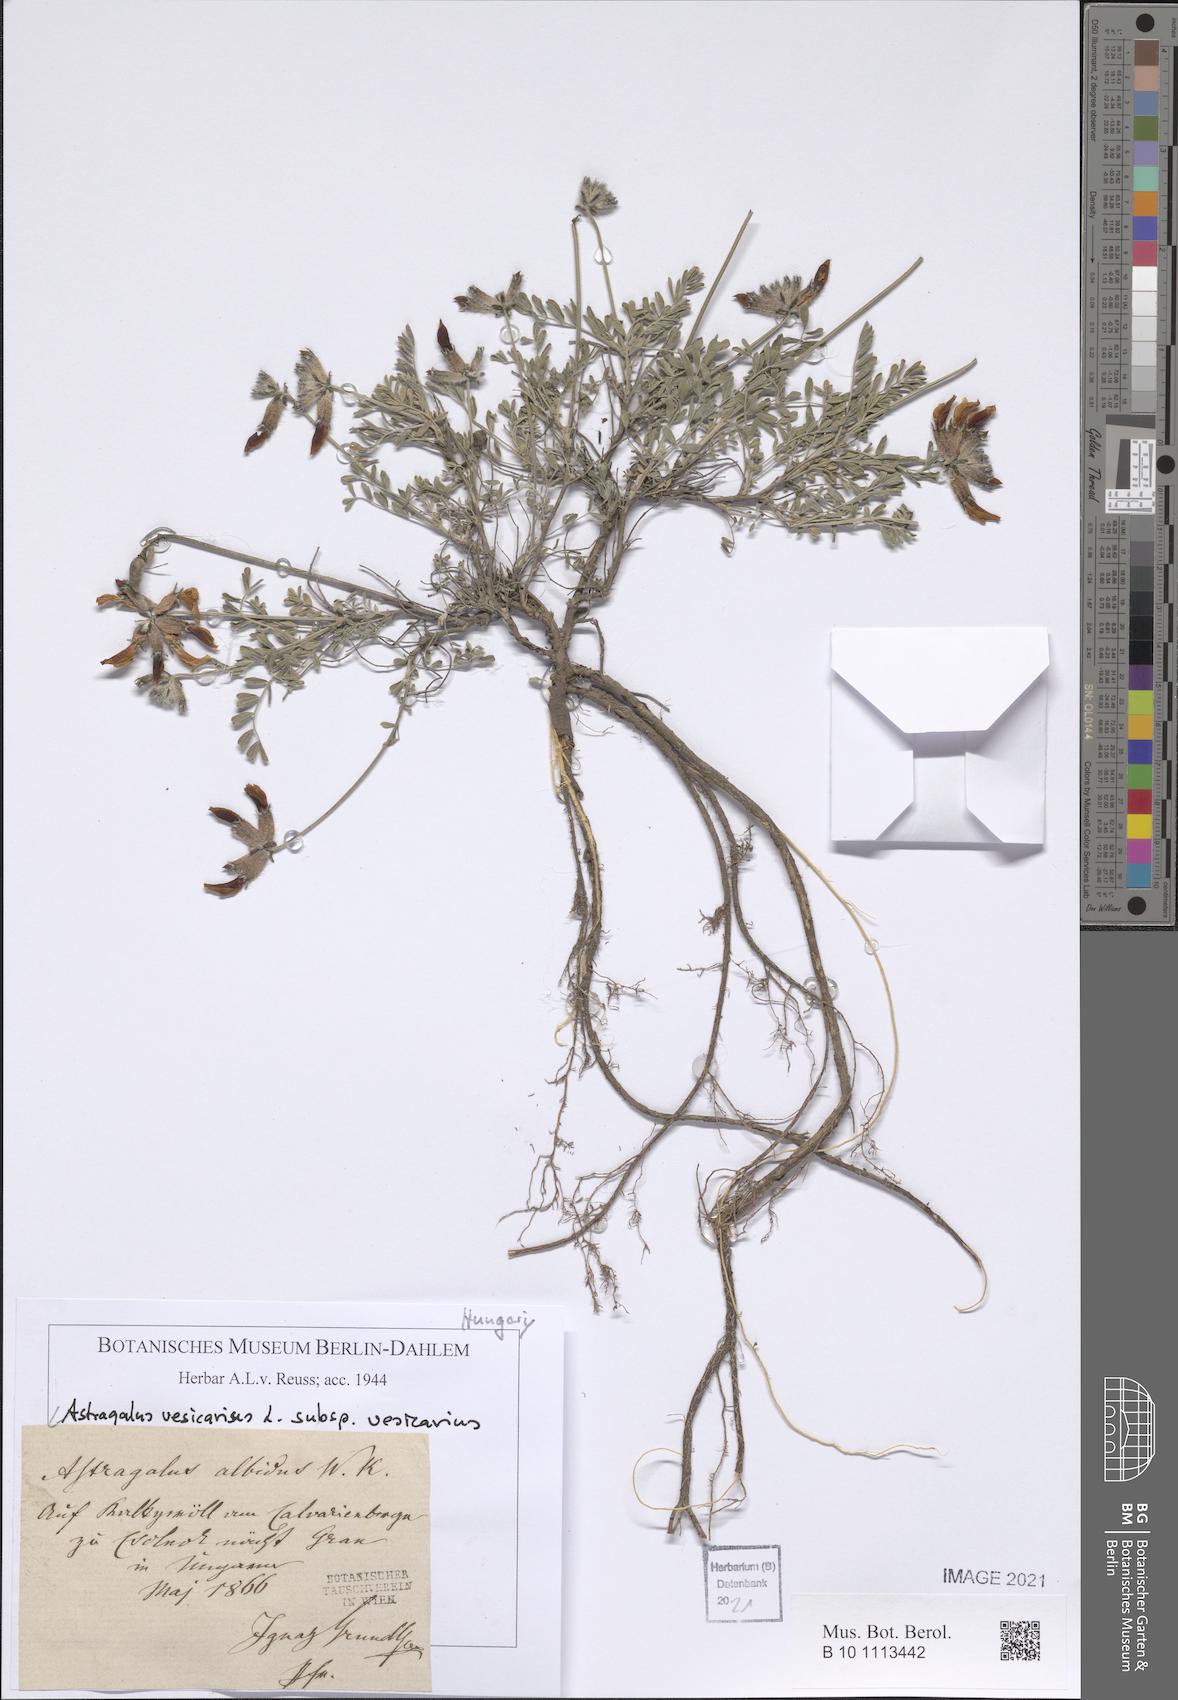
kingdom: Plantae
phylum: Tracheophyta
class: Magnoliopsida
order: Fabales
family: Fabaceae
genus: Astragalus
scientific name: Astragalus vesicarius
